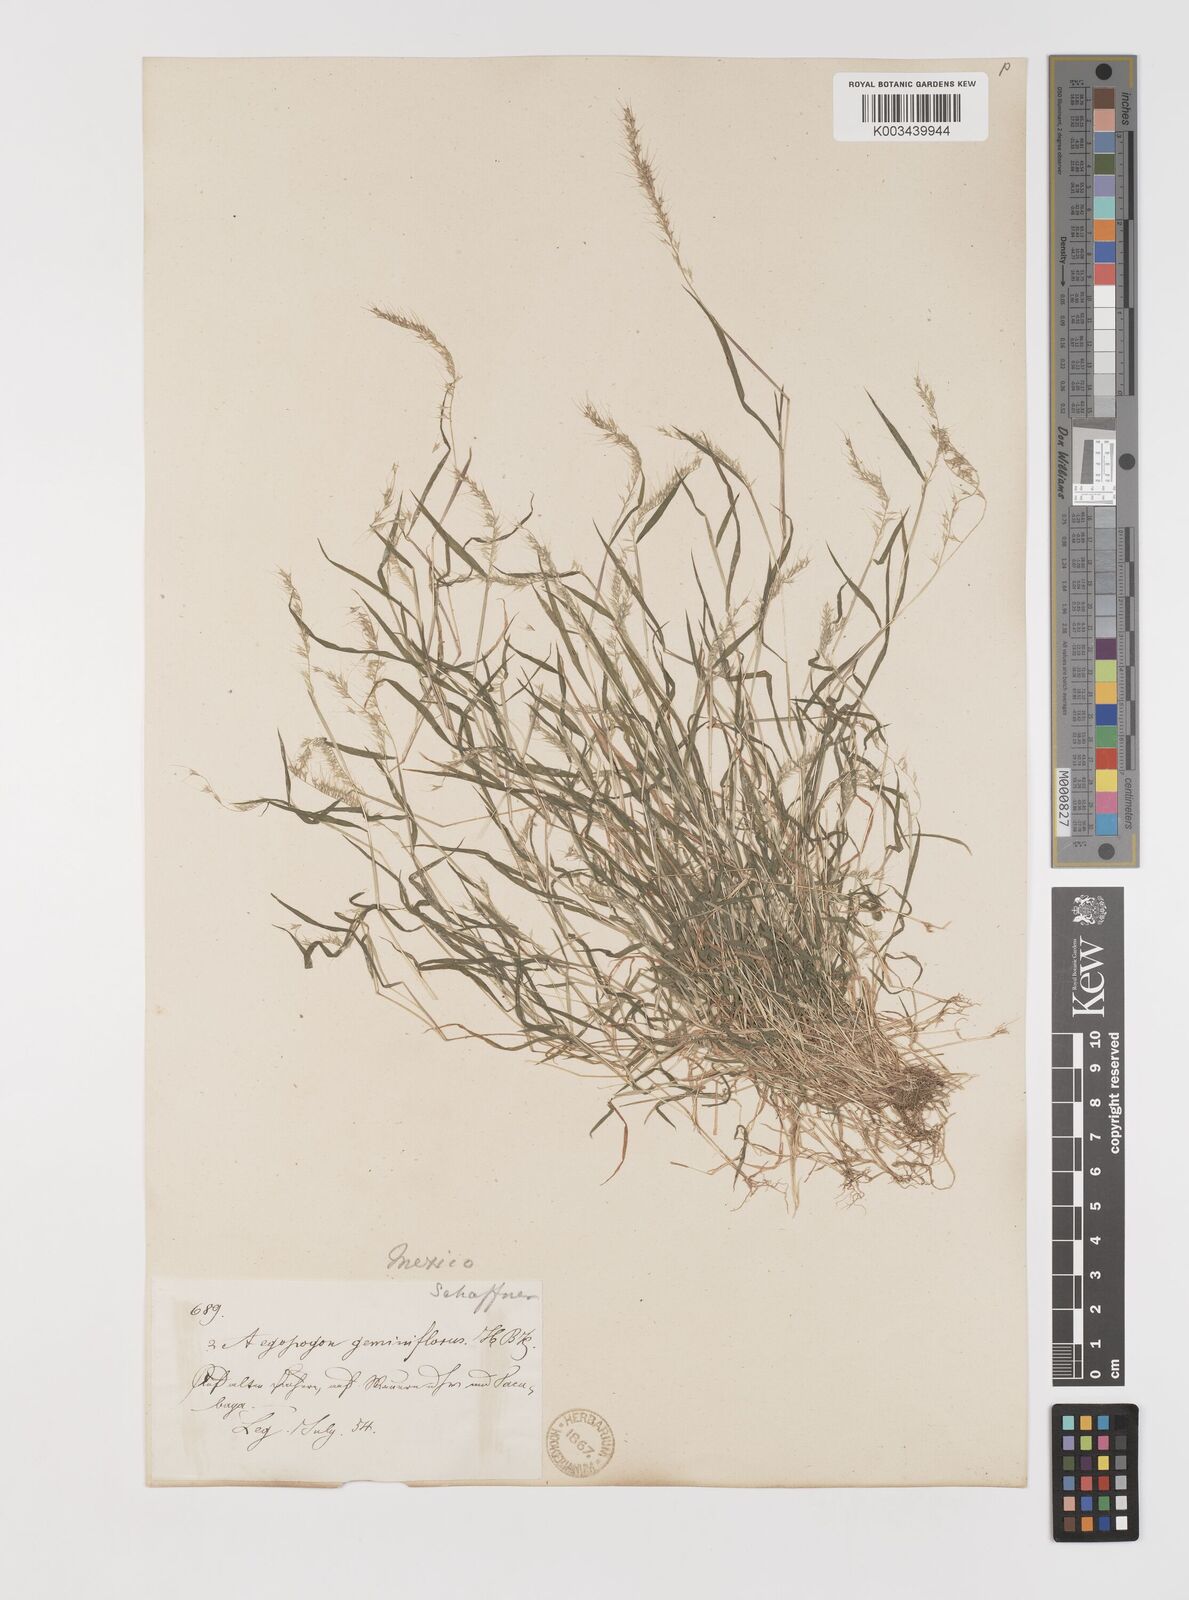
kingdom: Plantae
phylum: Tracheophyta
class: Liliopsida
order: Poales
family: Poaceae
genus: Muhlenbergia
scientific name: Muhlenbergia uniseta
